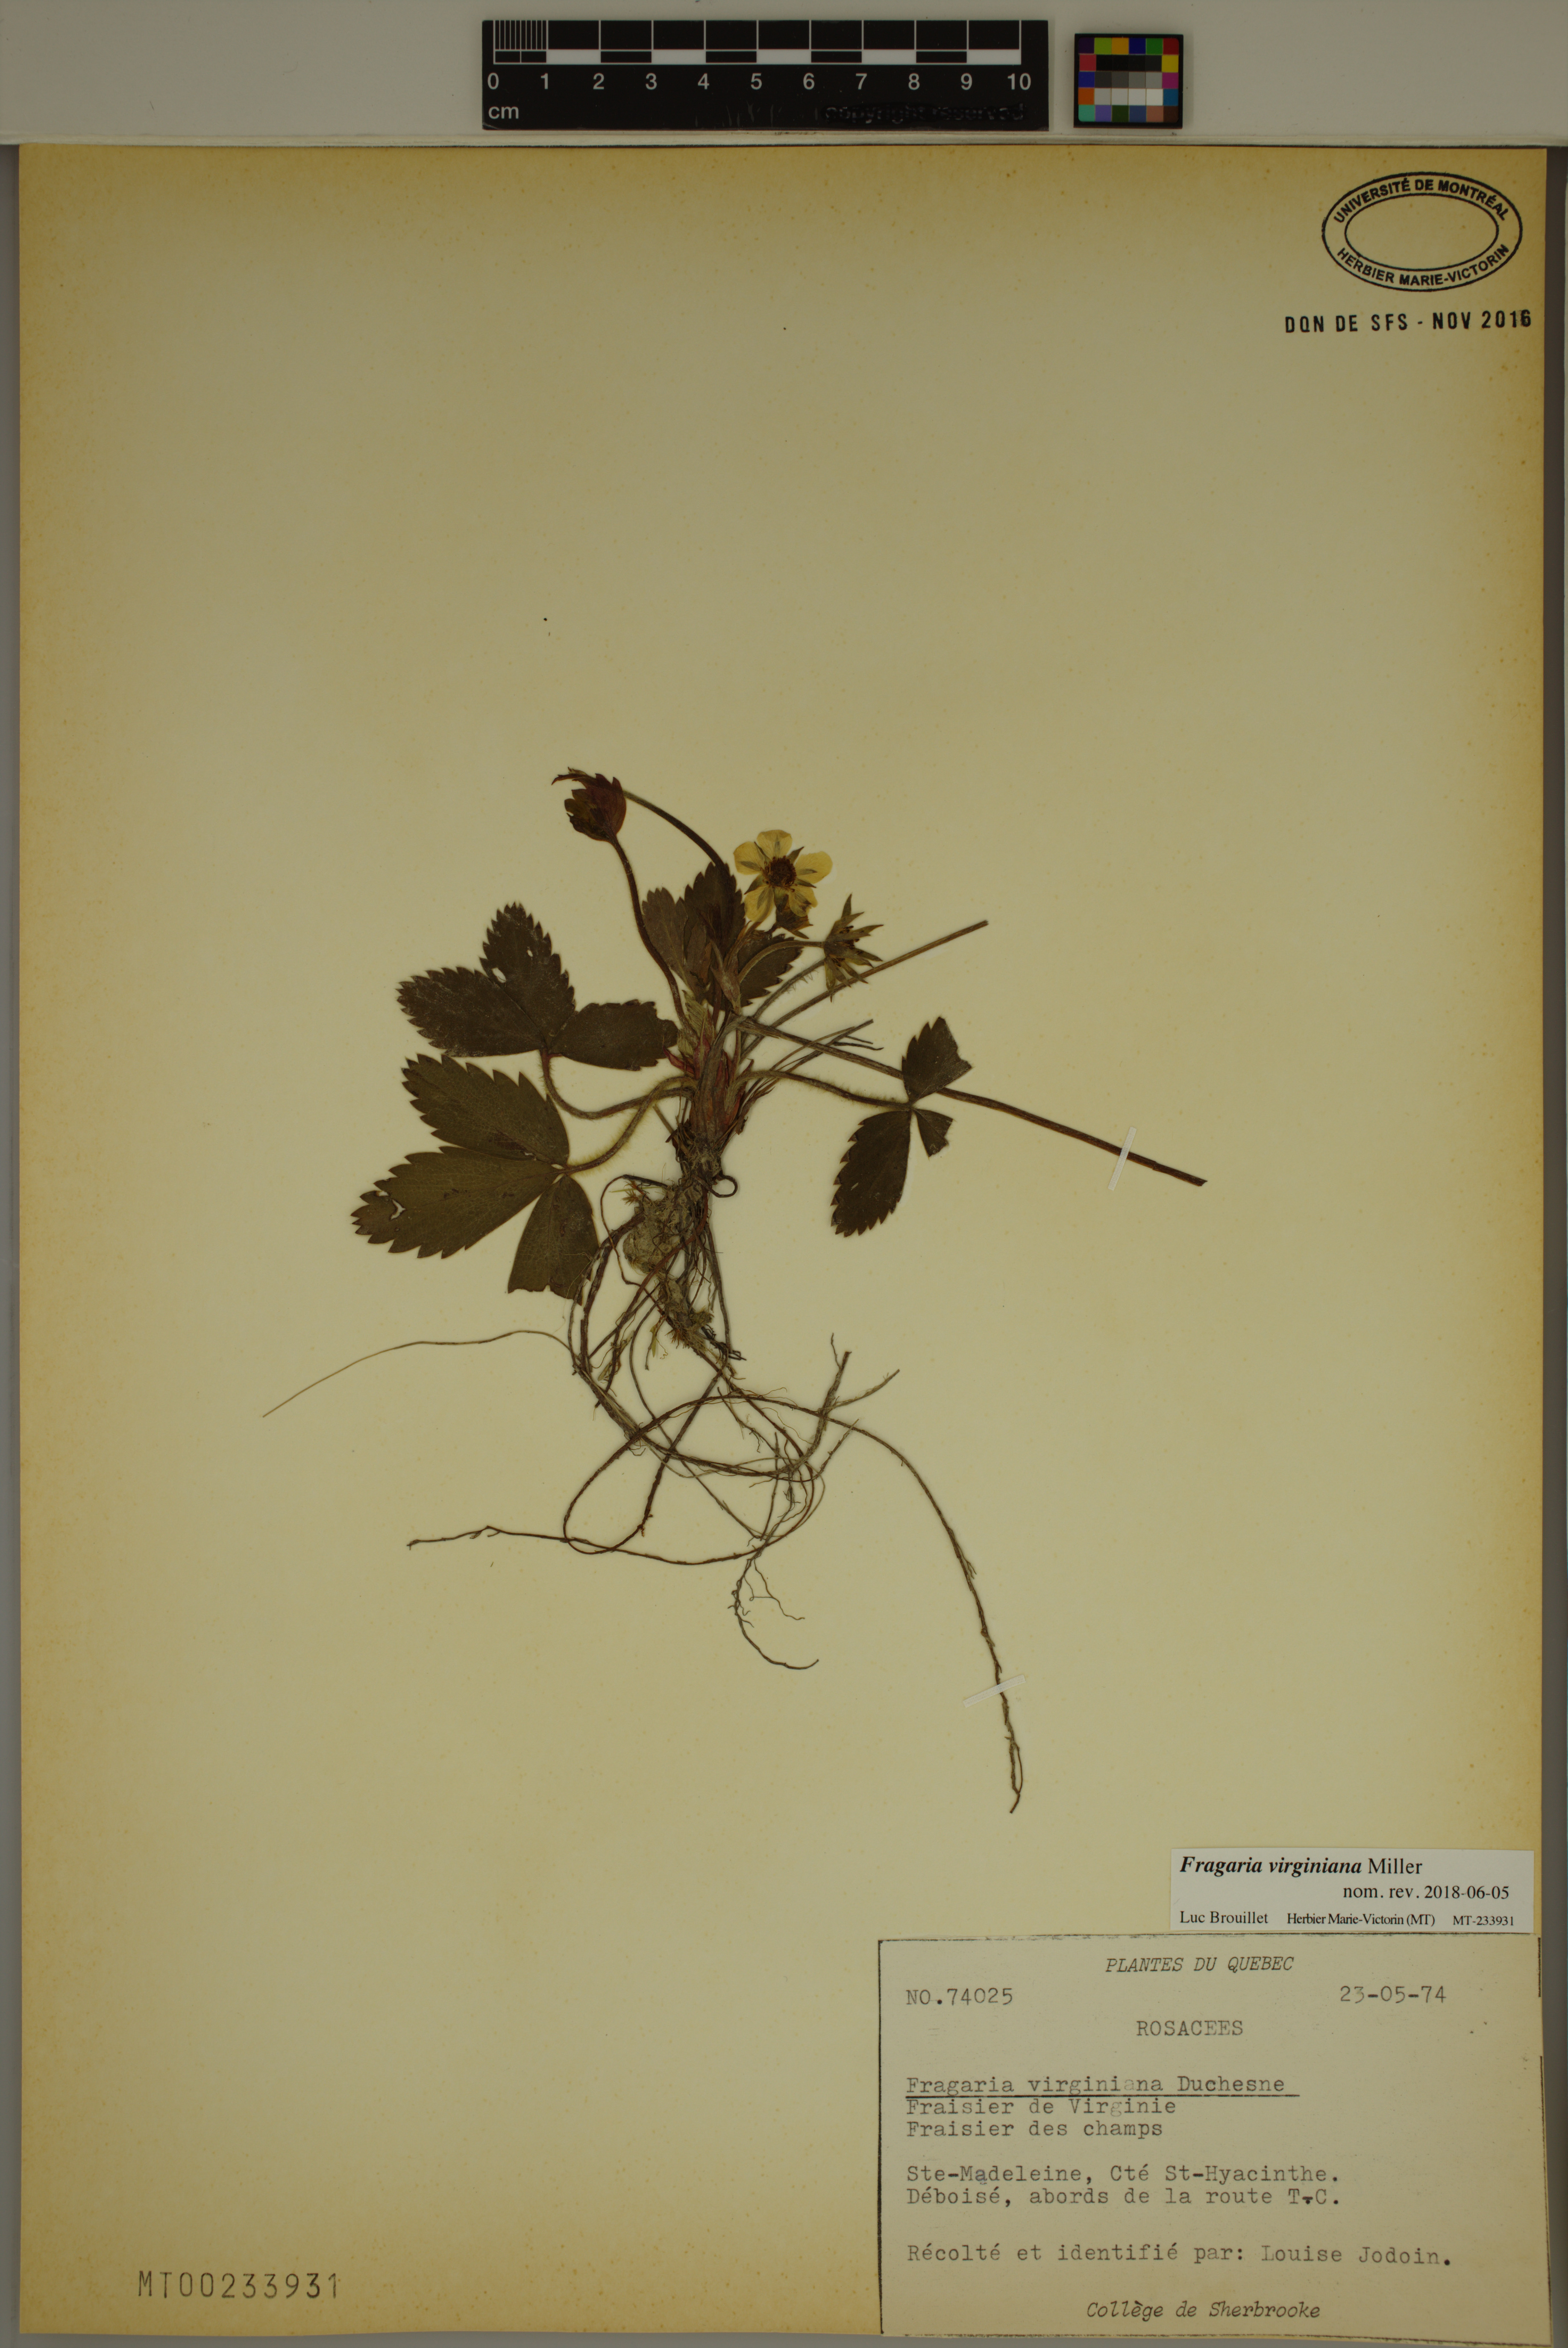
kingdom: Plantae
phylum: Tracheophyta
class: Magnoliopsida
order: Rosales
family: Rosaceae
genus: Fragaria
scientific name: Fragaria virginiana
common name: Thickleaved wild strawberry
